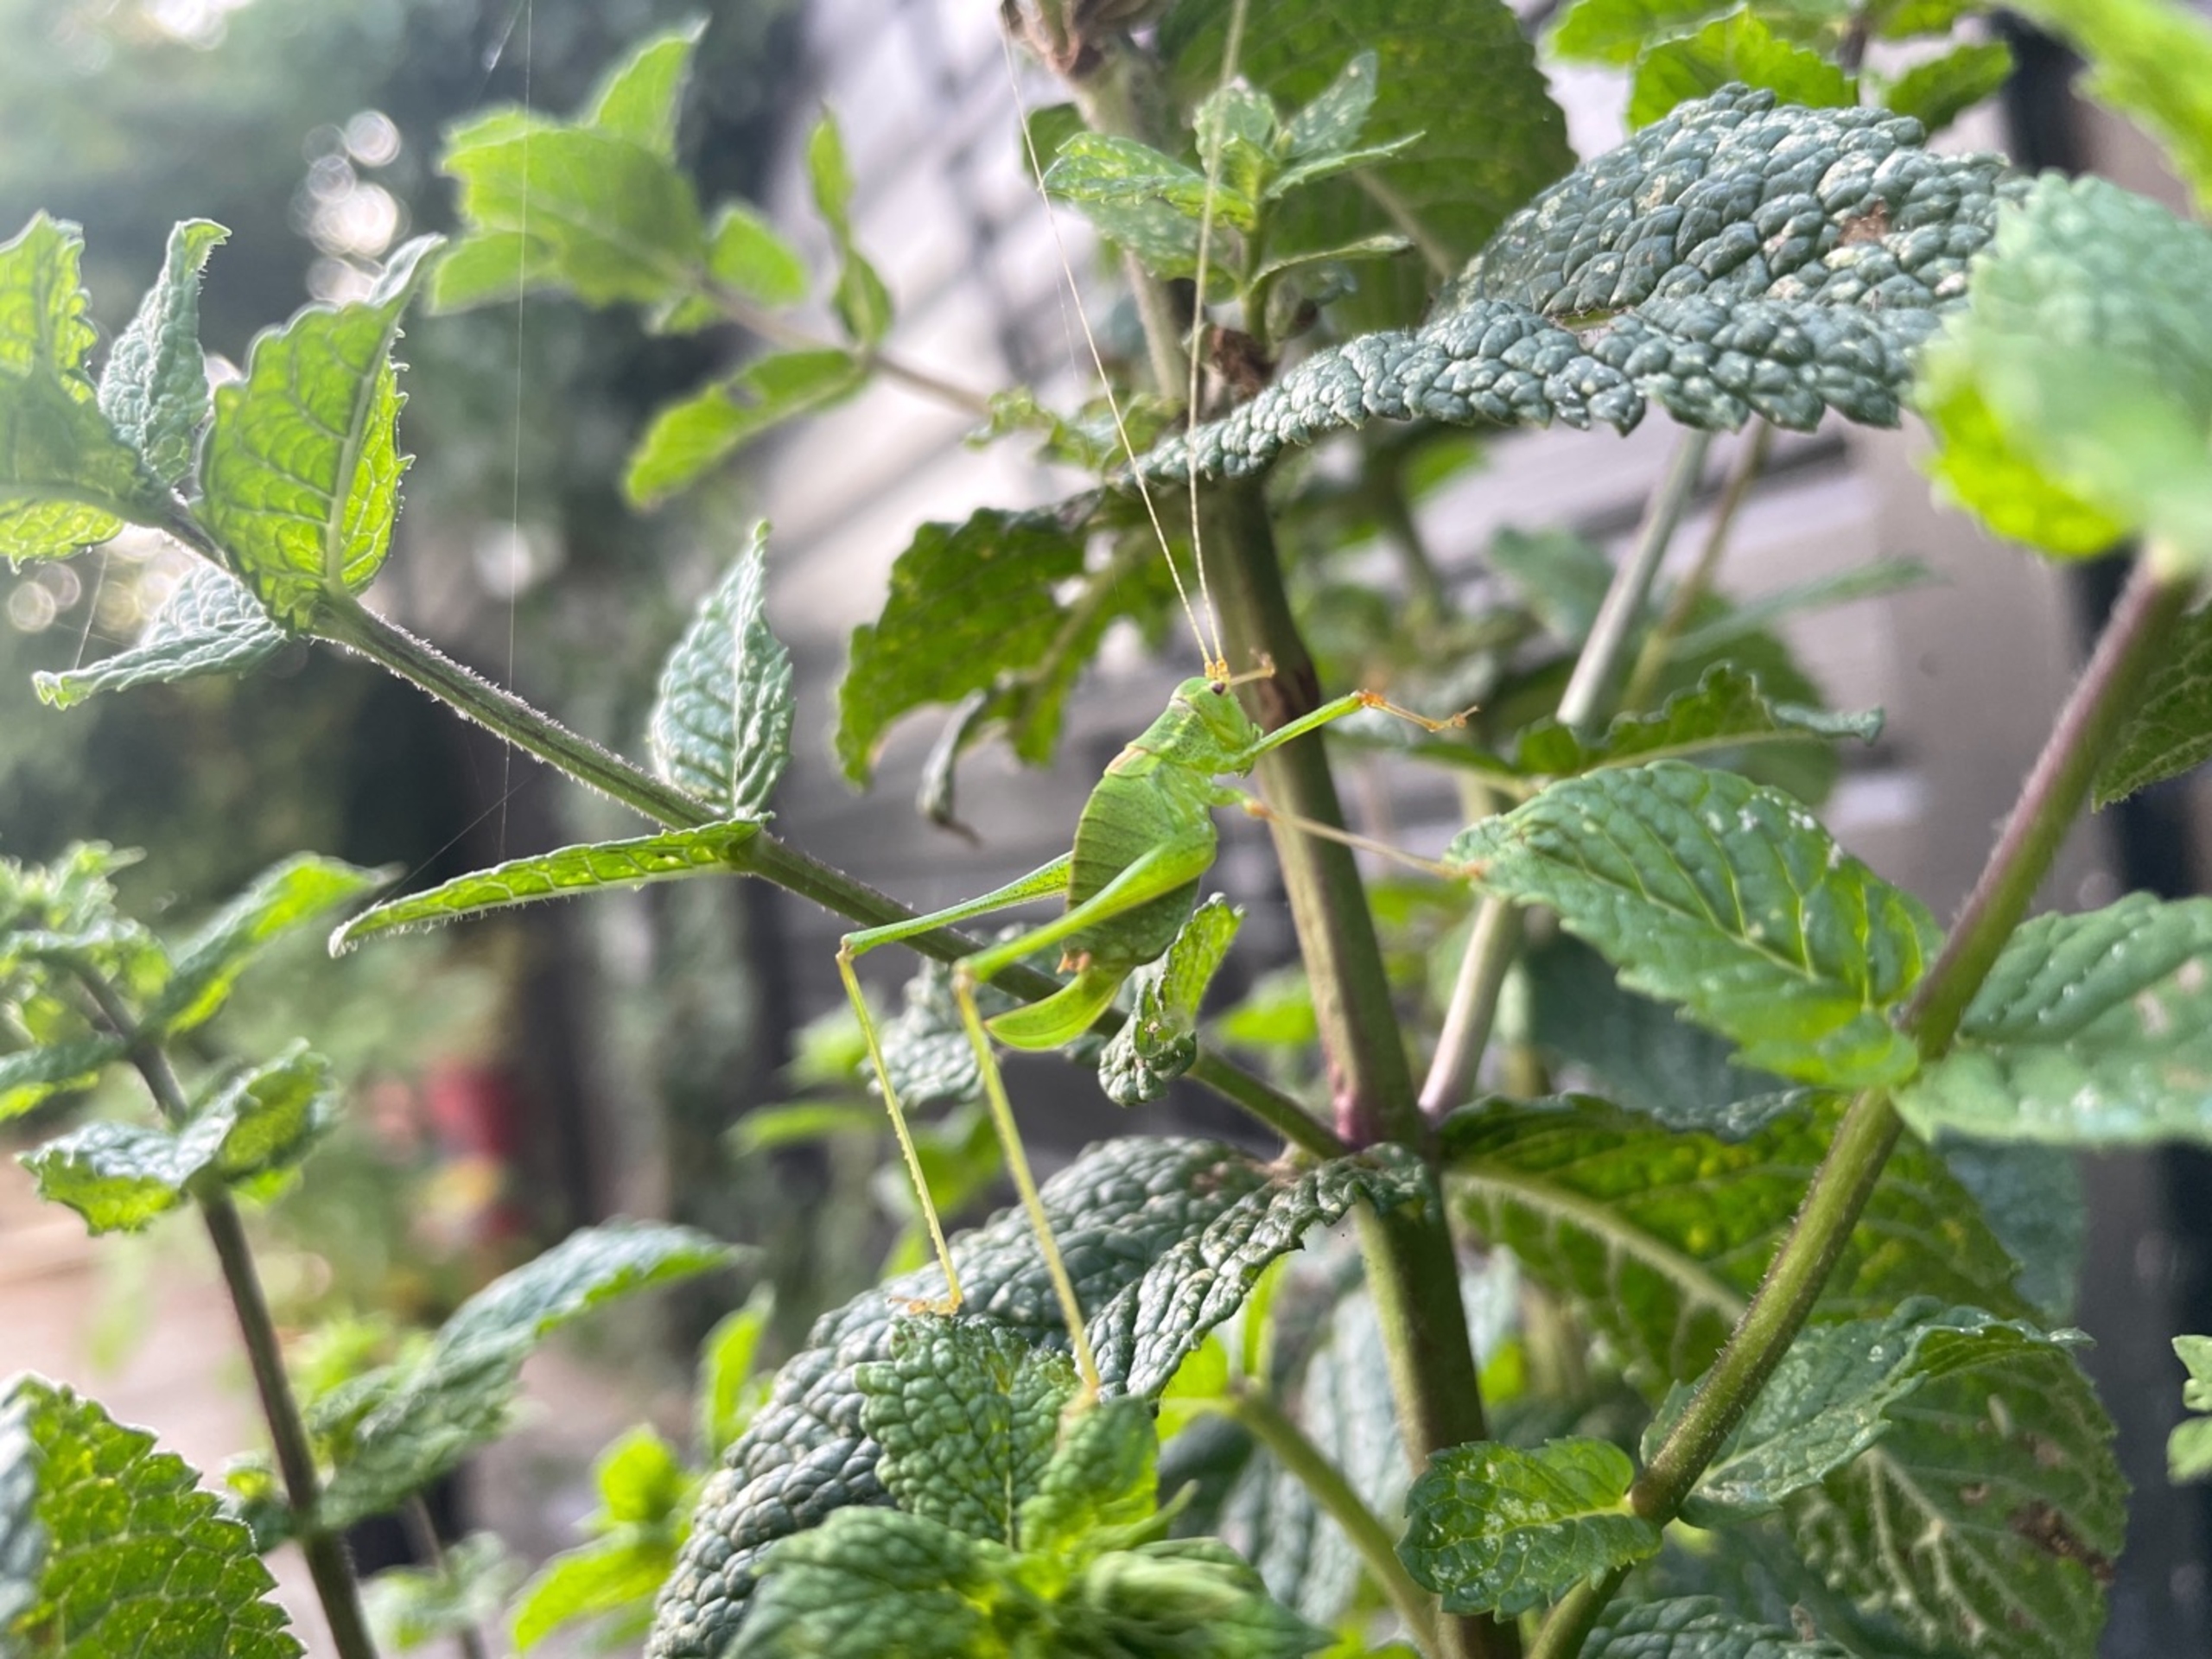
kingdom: Animalia
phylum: Arthropoda
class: Insecta
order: Orthoptera
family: Tettigoniidae
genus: Leptophyes
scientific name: Leptophyes punctatissima
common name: Krumknivgræshoppe
